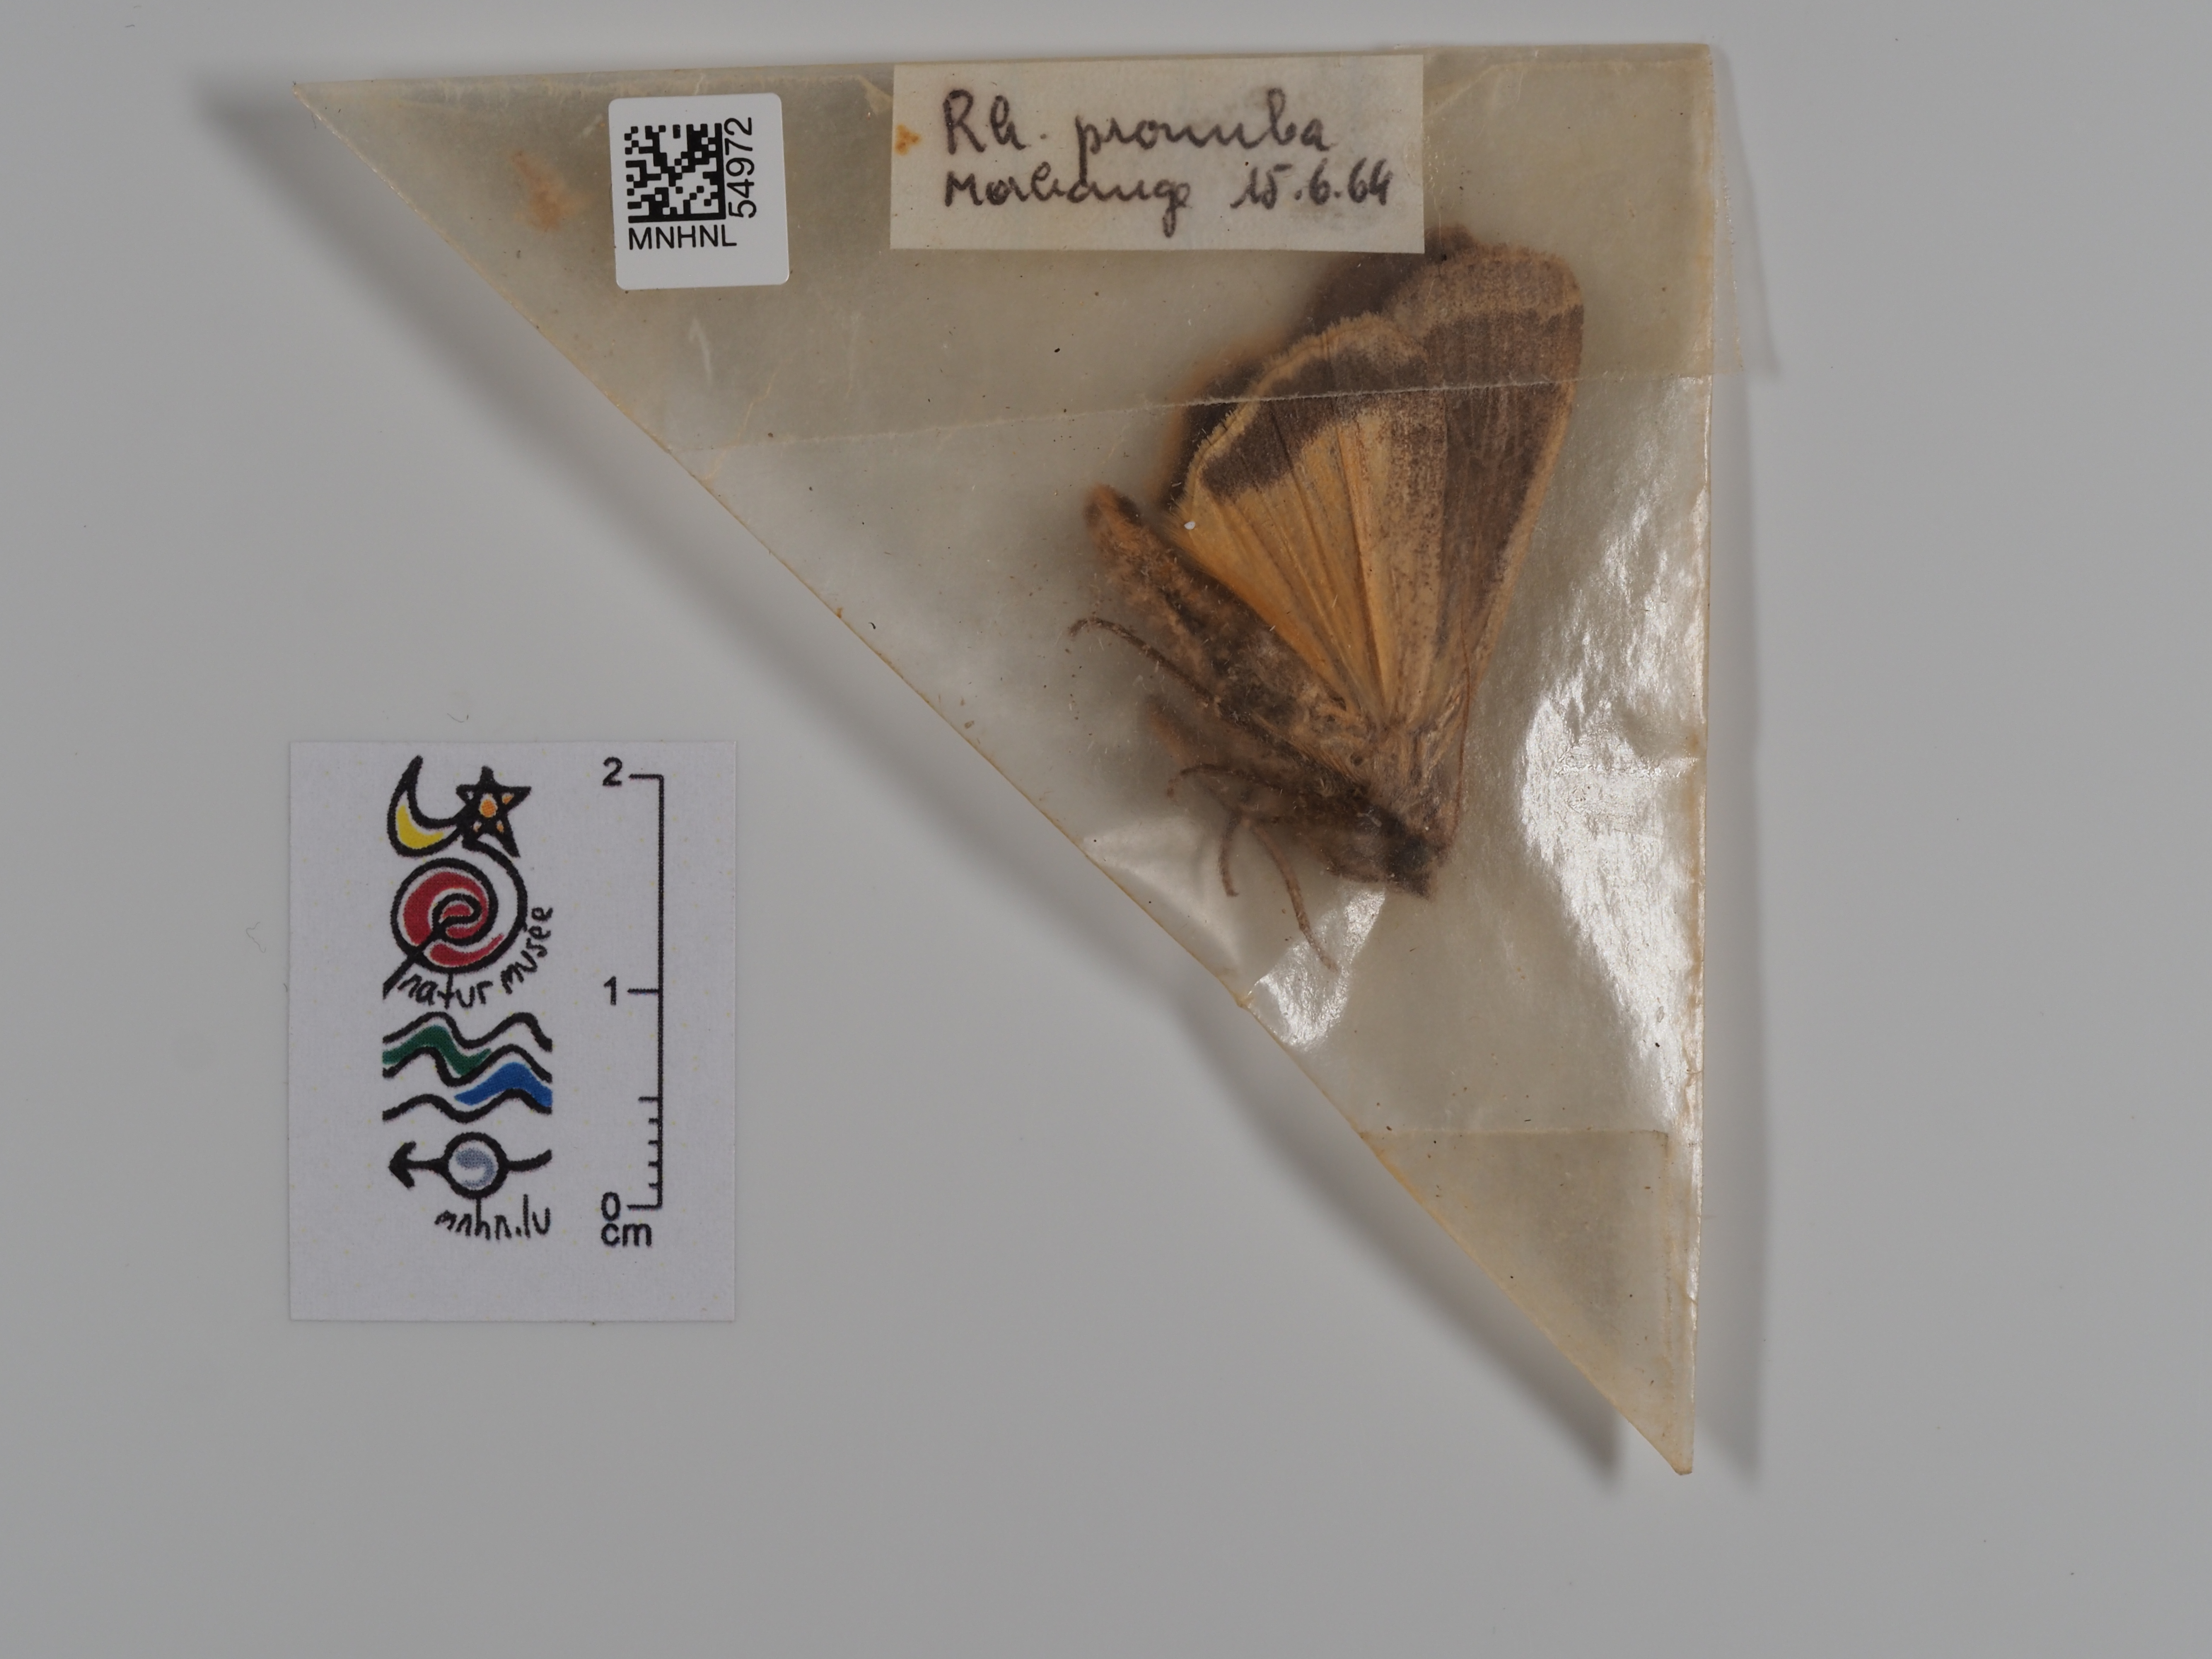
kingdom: Animalia
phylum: Arthropoda
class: Insecta
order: Lepidoptera
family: Noctuidae
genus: Noctua
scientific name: Noctua pronuba
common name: Large yellow underwing
